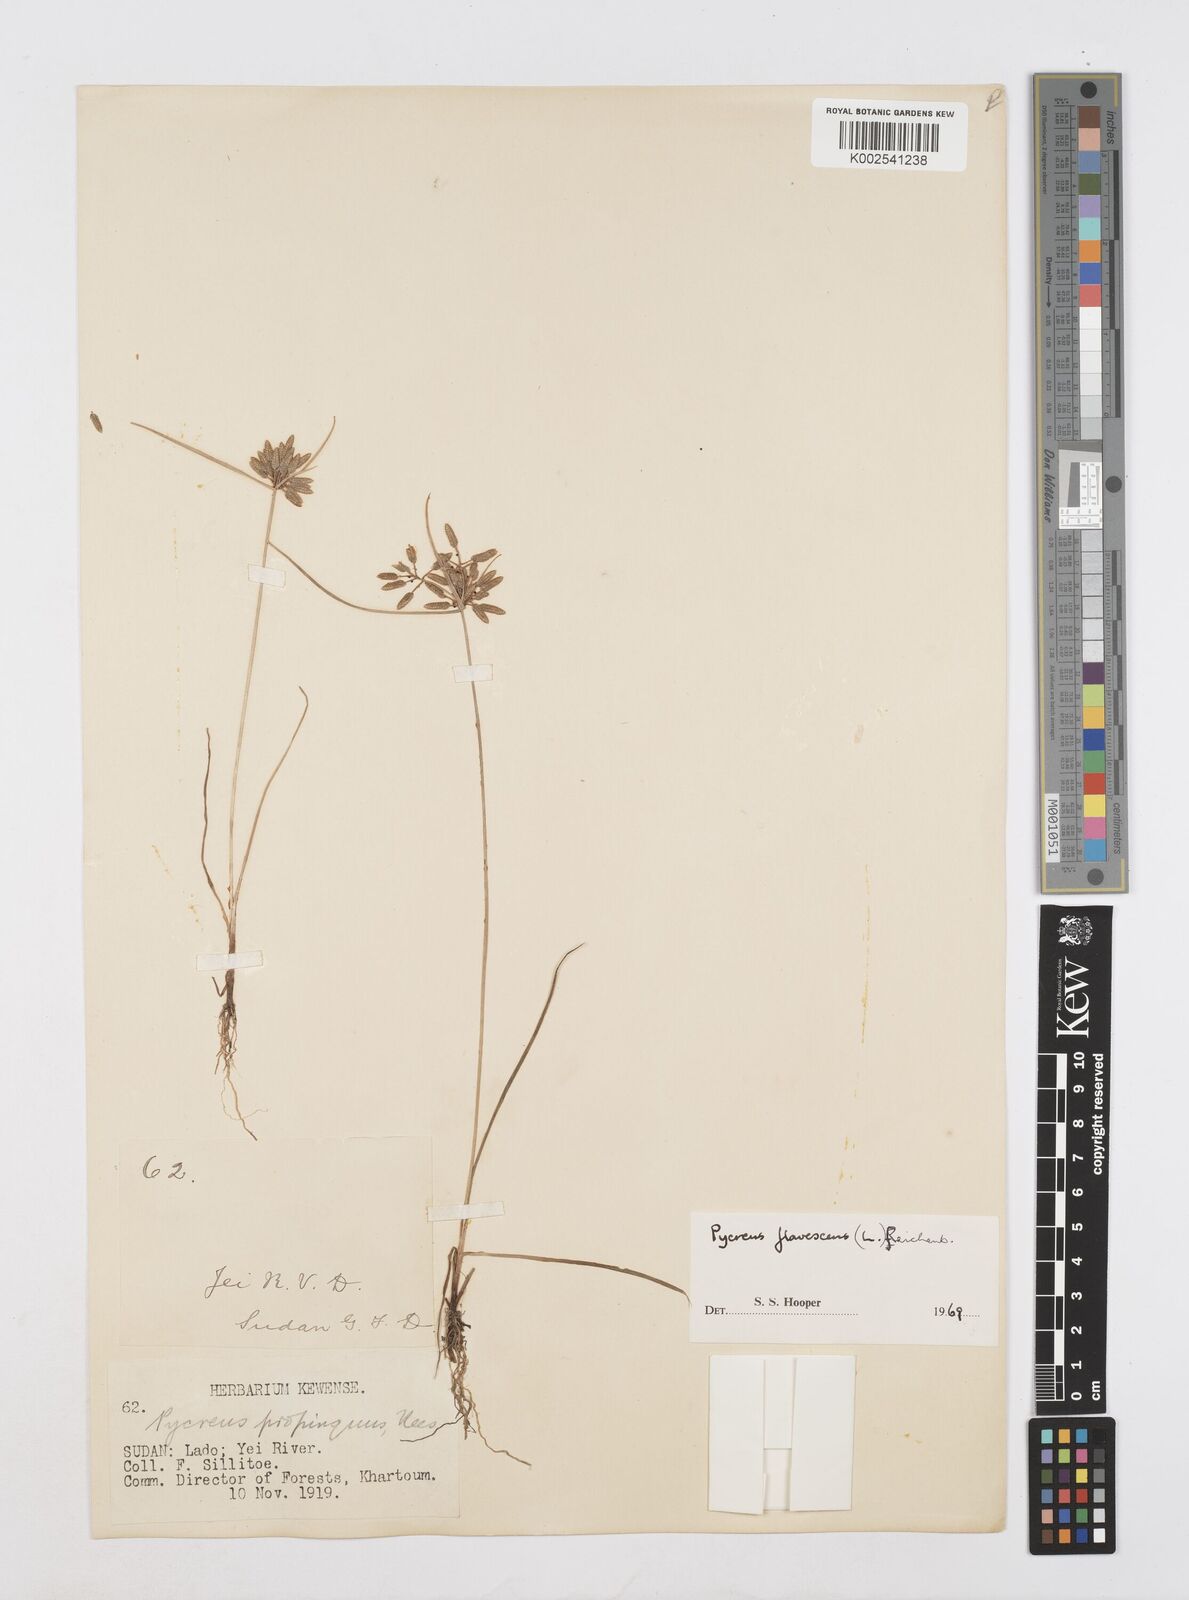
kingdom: Plantae
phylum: Tracheophyta
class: Liliopsida
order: Poales
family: Cyperaceae
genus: Cyperus
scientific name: Cyperus flavescens
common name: Yellow galingale
